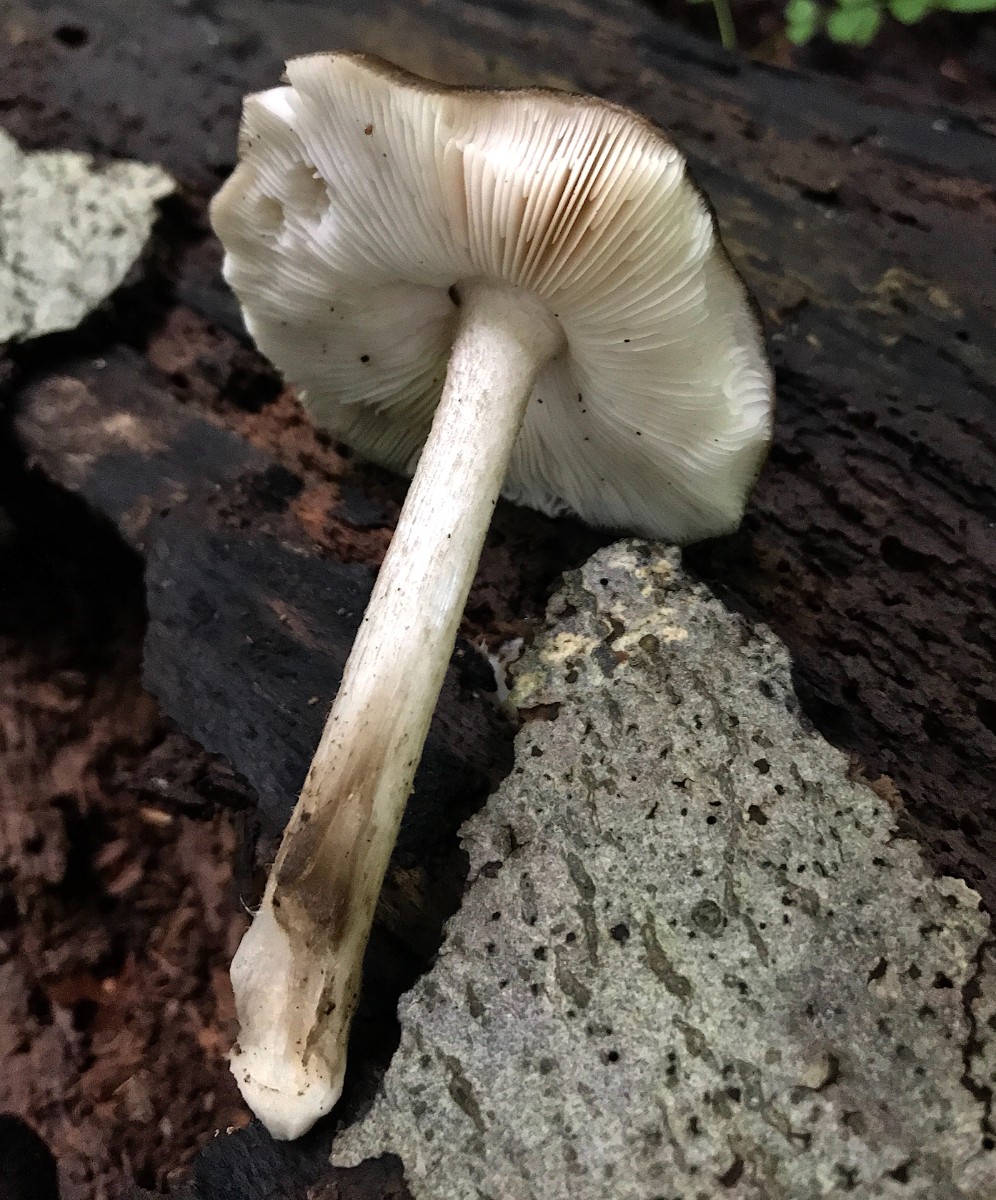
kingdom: Fungi
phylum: Basidiomycota
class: Agaricomycetes
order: Agaricales
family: Pluteaceae
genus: Pluteus
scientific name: Pluteus cervinus
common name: sodfarvet skærmhat
